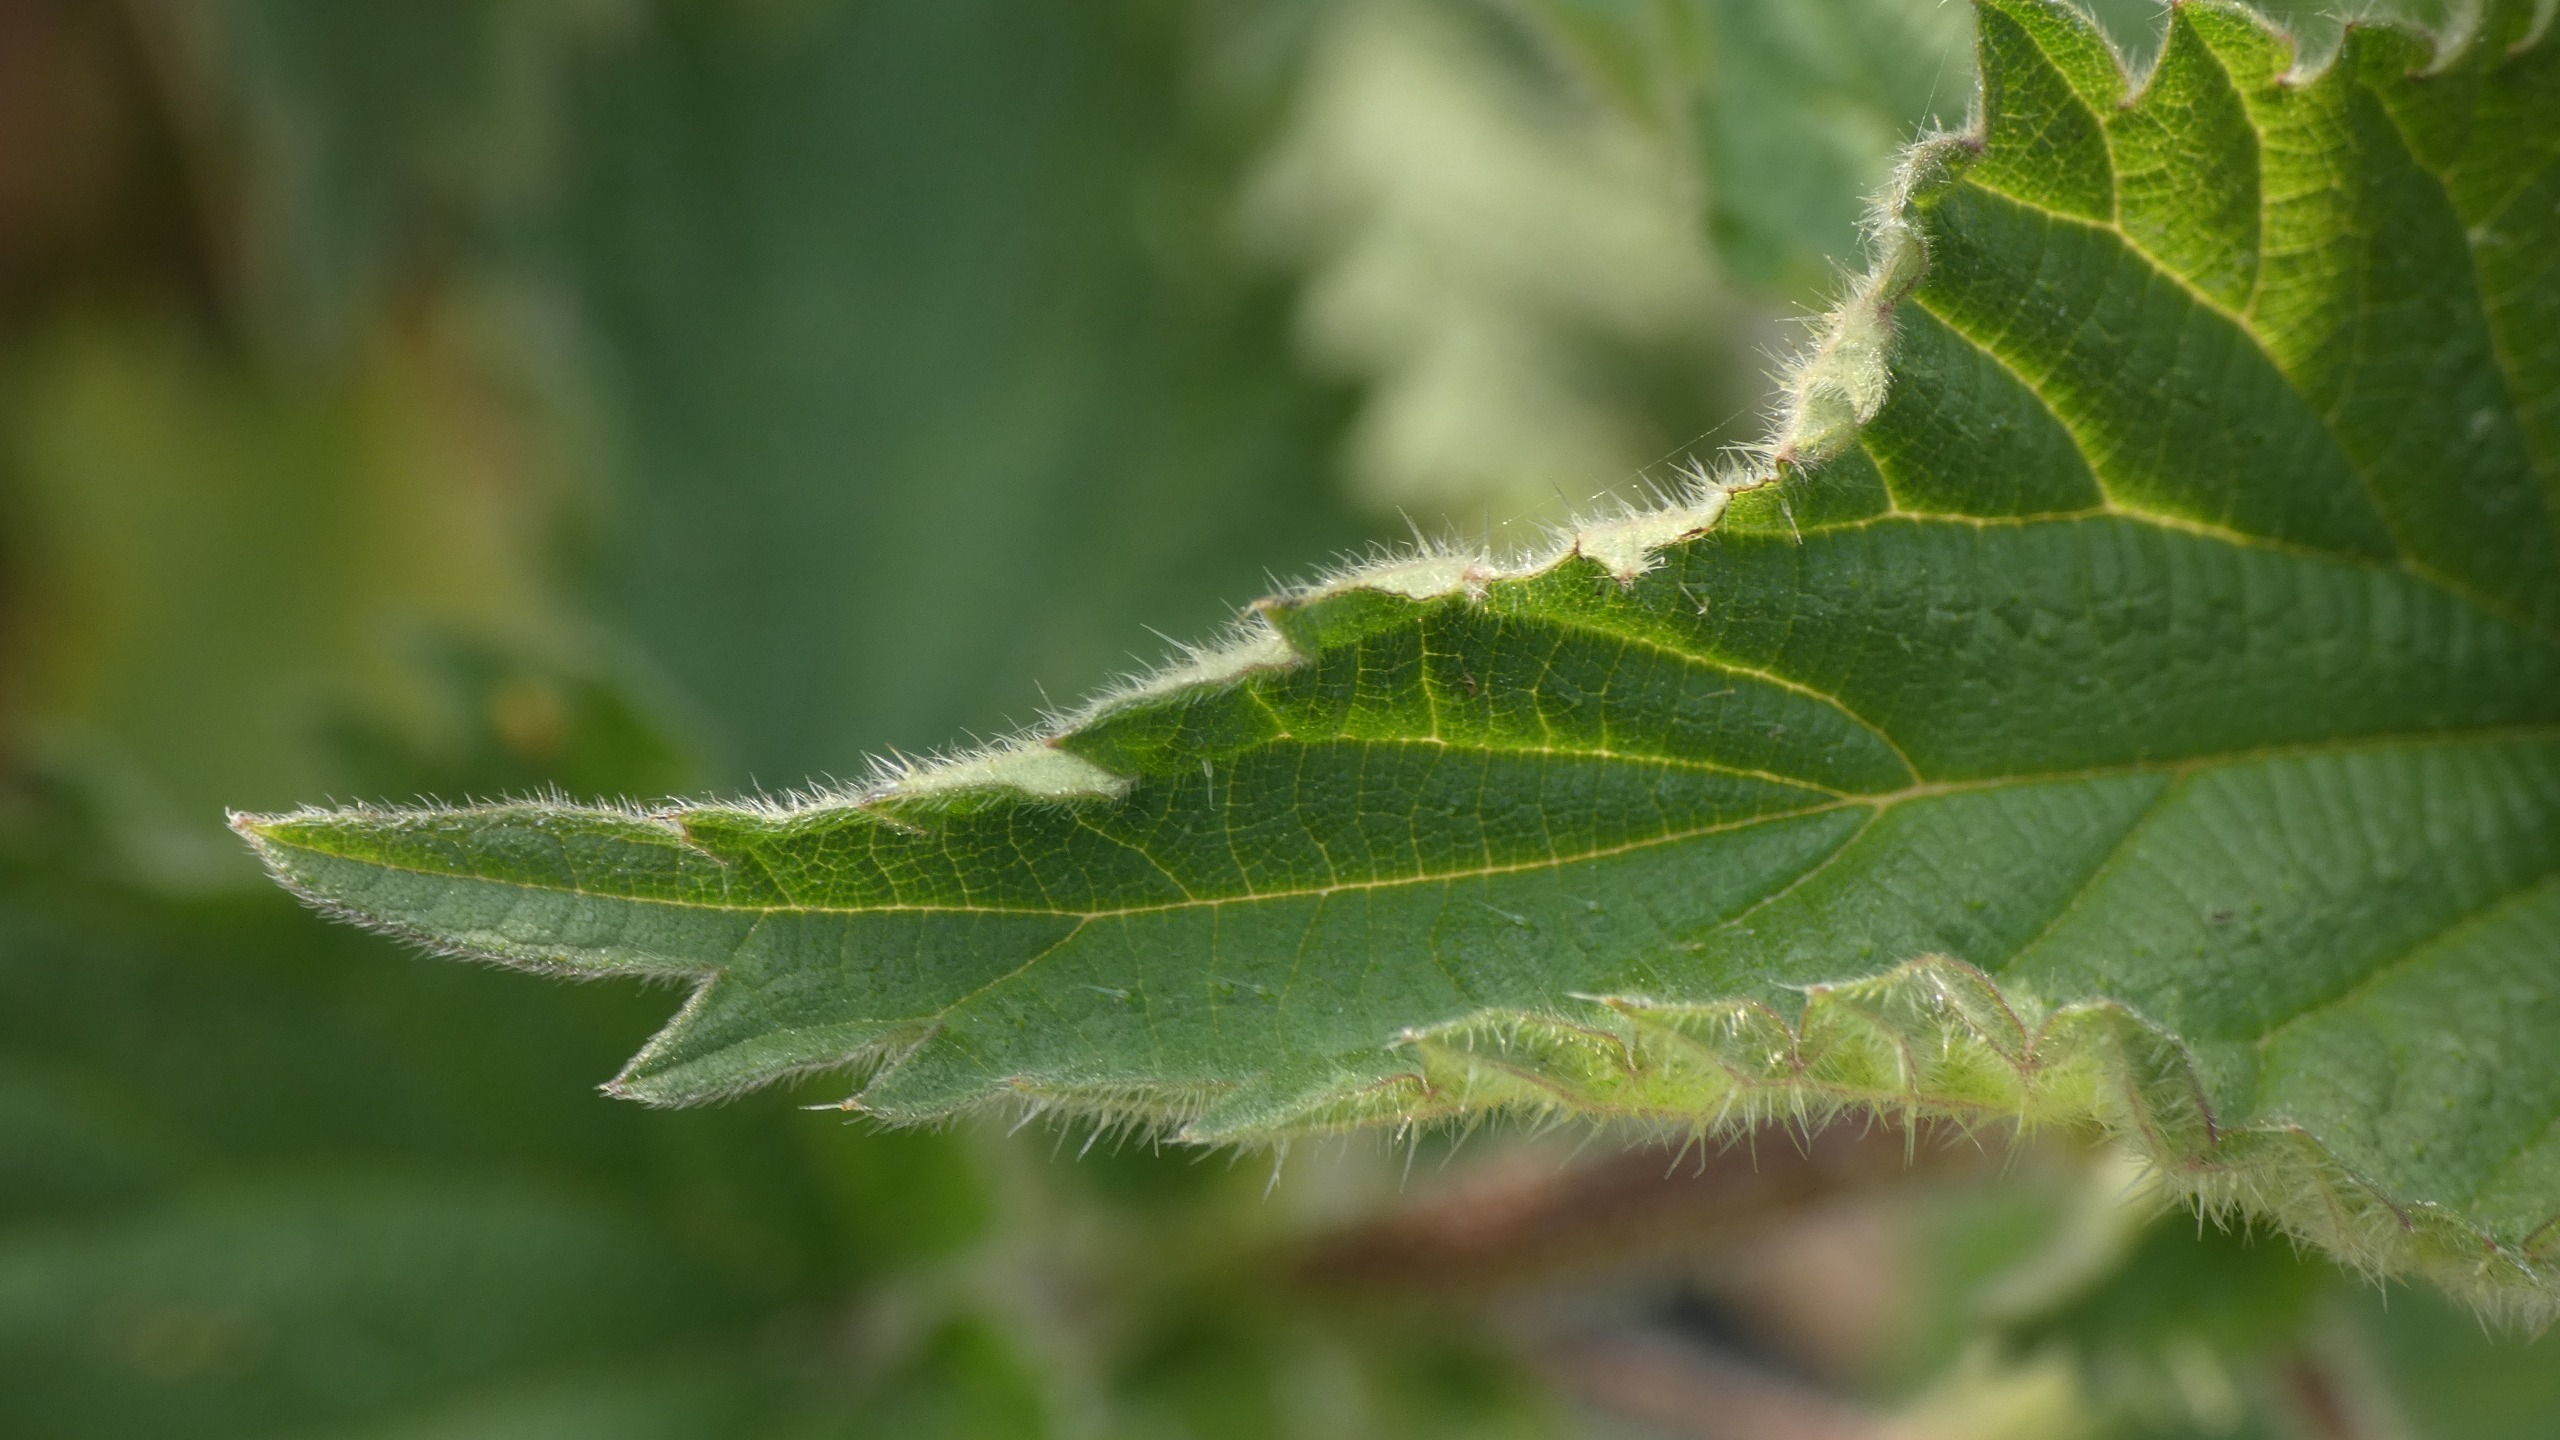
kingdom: Plantae
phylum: Tracheophyta
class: Magnoliopsida
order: Rosales
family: Urticaceae
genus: Urtica
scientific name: Urtica dioica
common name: Stor nælde
